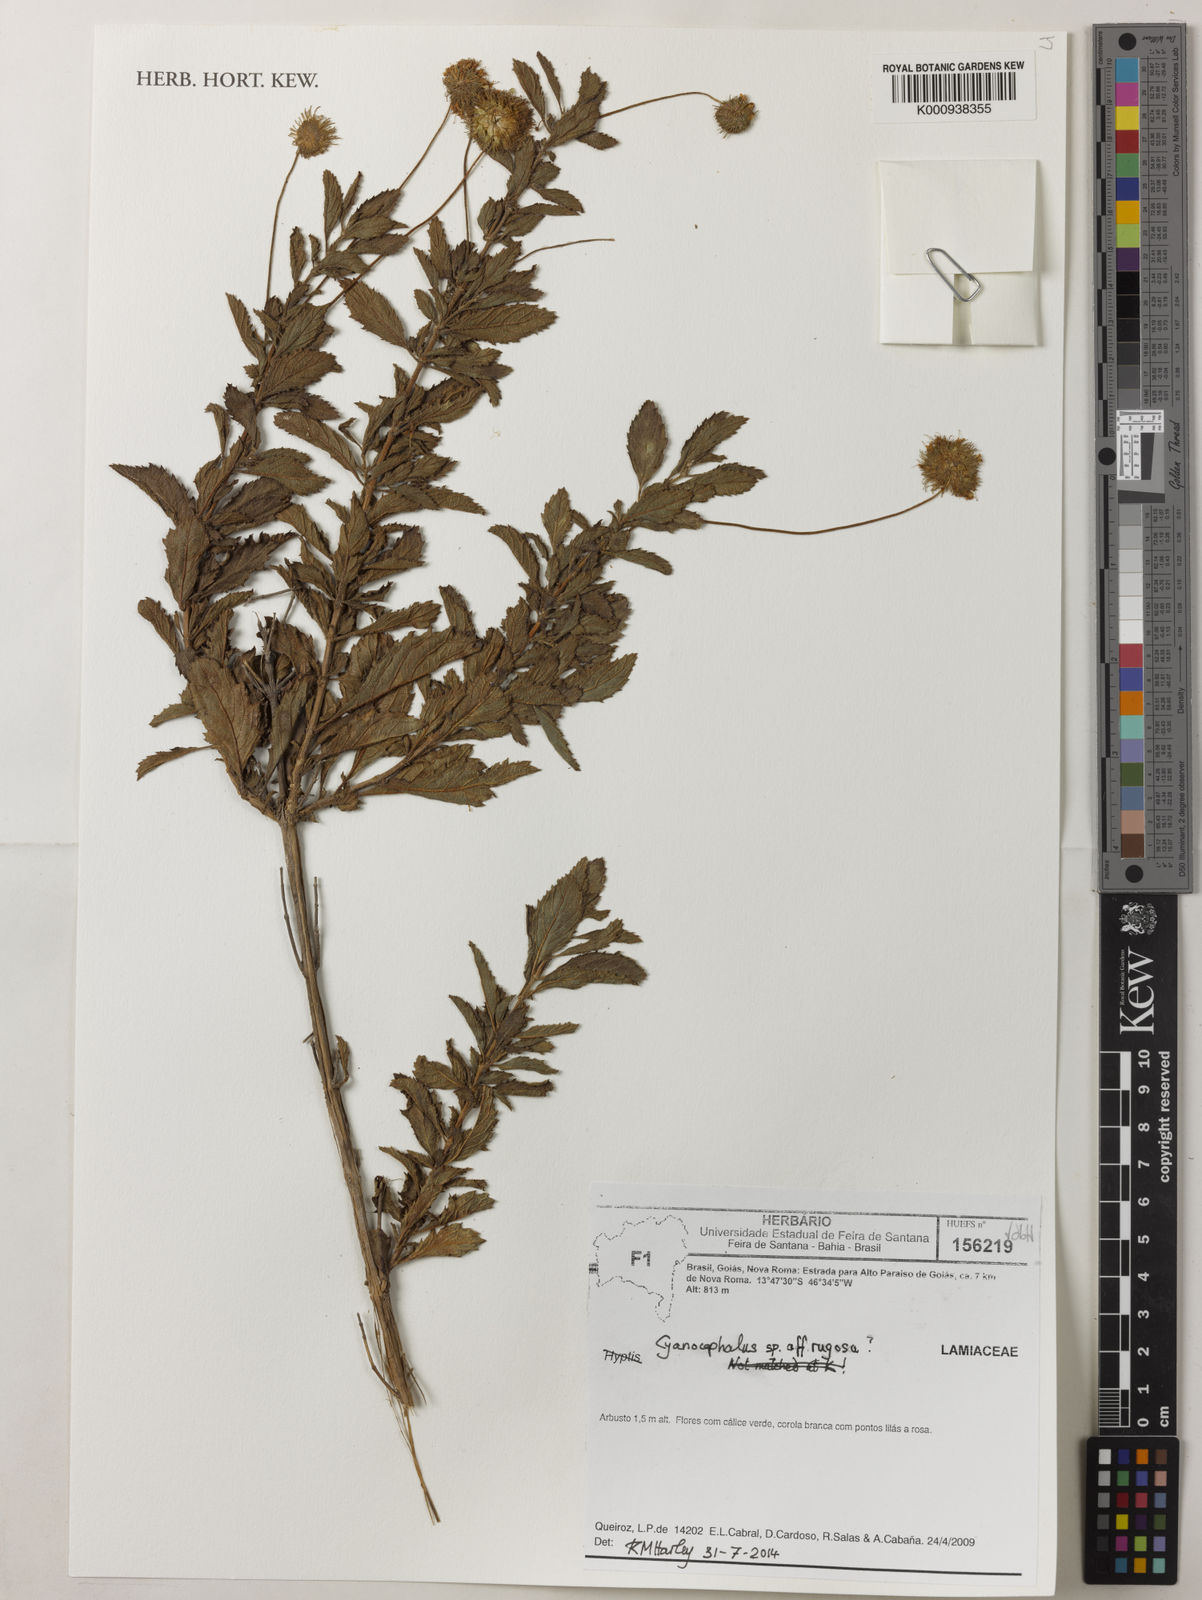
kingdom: Plantae
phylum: Tracheophyta
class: Magnoliopsida
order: Lamiales
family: Lamiaceae
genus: Cyanocephalus
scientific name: Cyanocephalus
